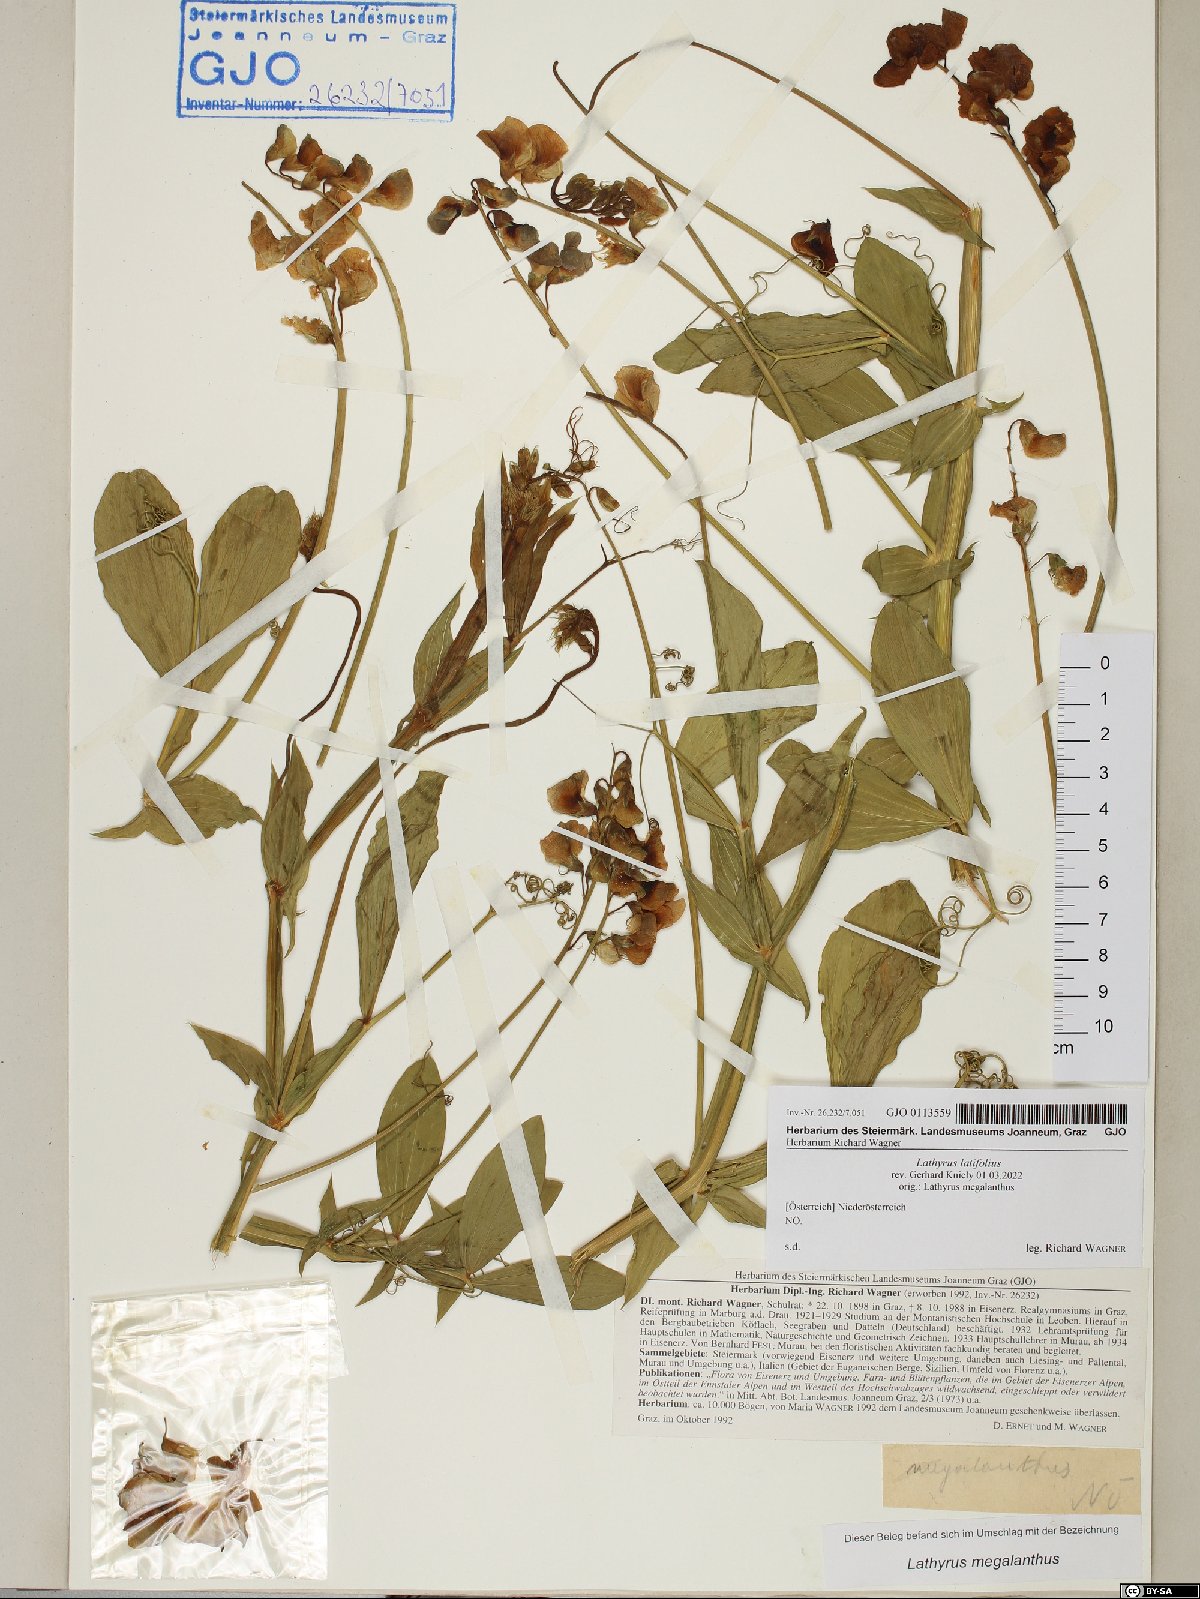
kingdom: Plantae
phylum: Tracheophyta
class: Magnoliopsida
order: Fabales
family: Fabaceae
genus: Lathyrus
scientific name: Lathyrus latifolius
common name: Perennial pea
